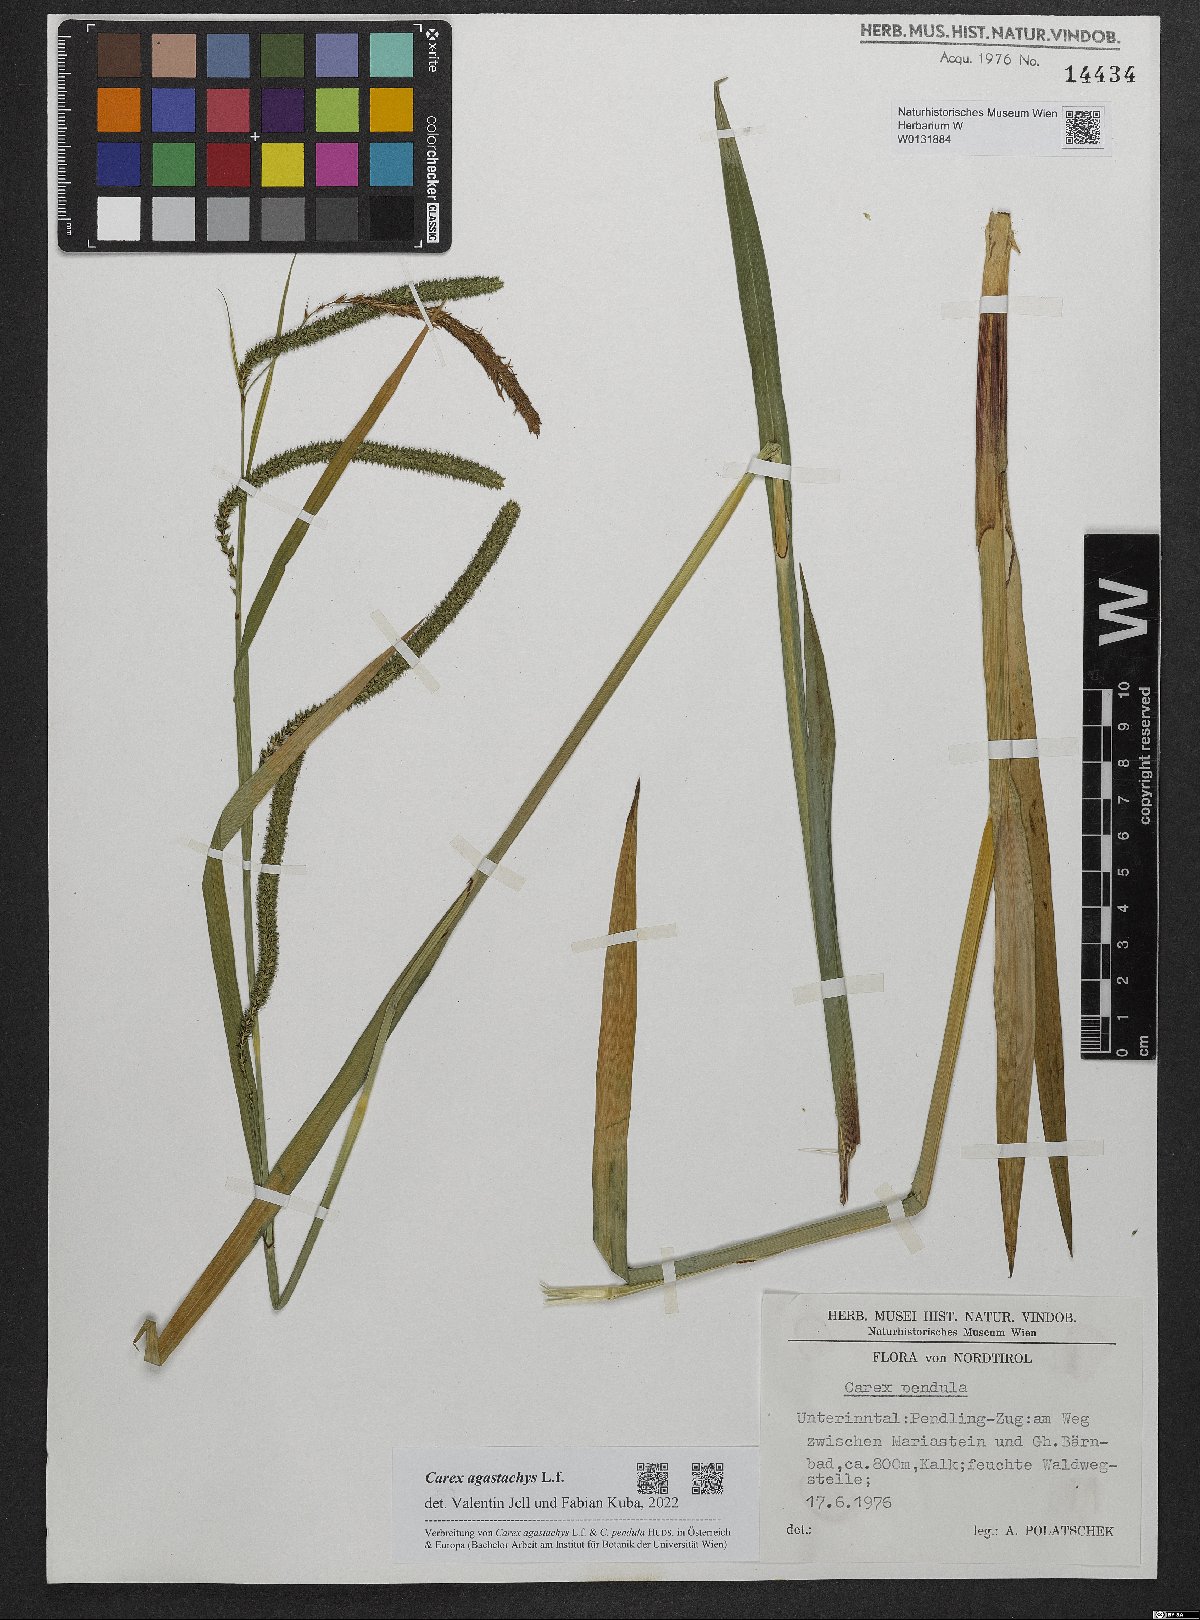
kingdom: Plantae
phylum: Tracheophyta
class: Liliopsida
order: Poales
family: Cyperaceae
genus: Carex
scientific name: Carex agastachys
